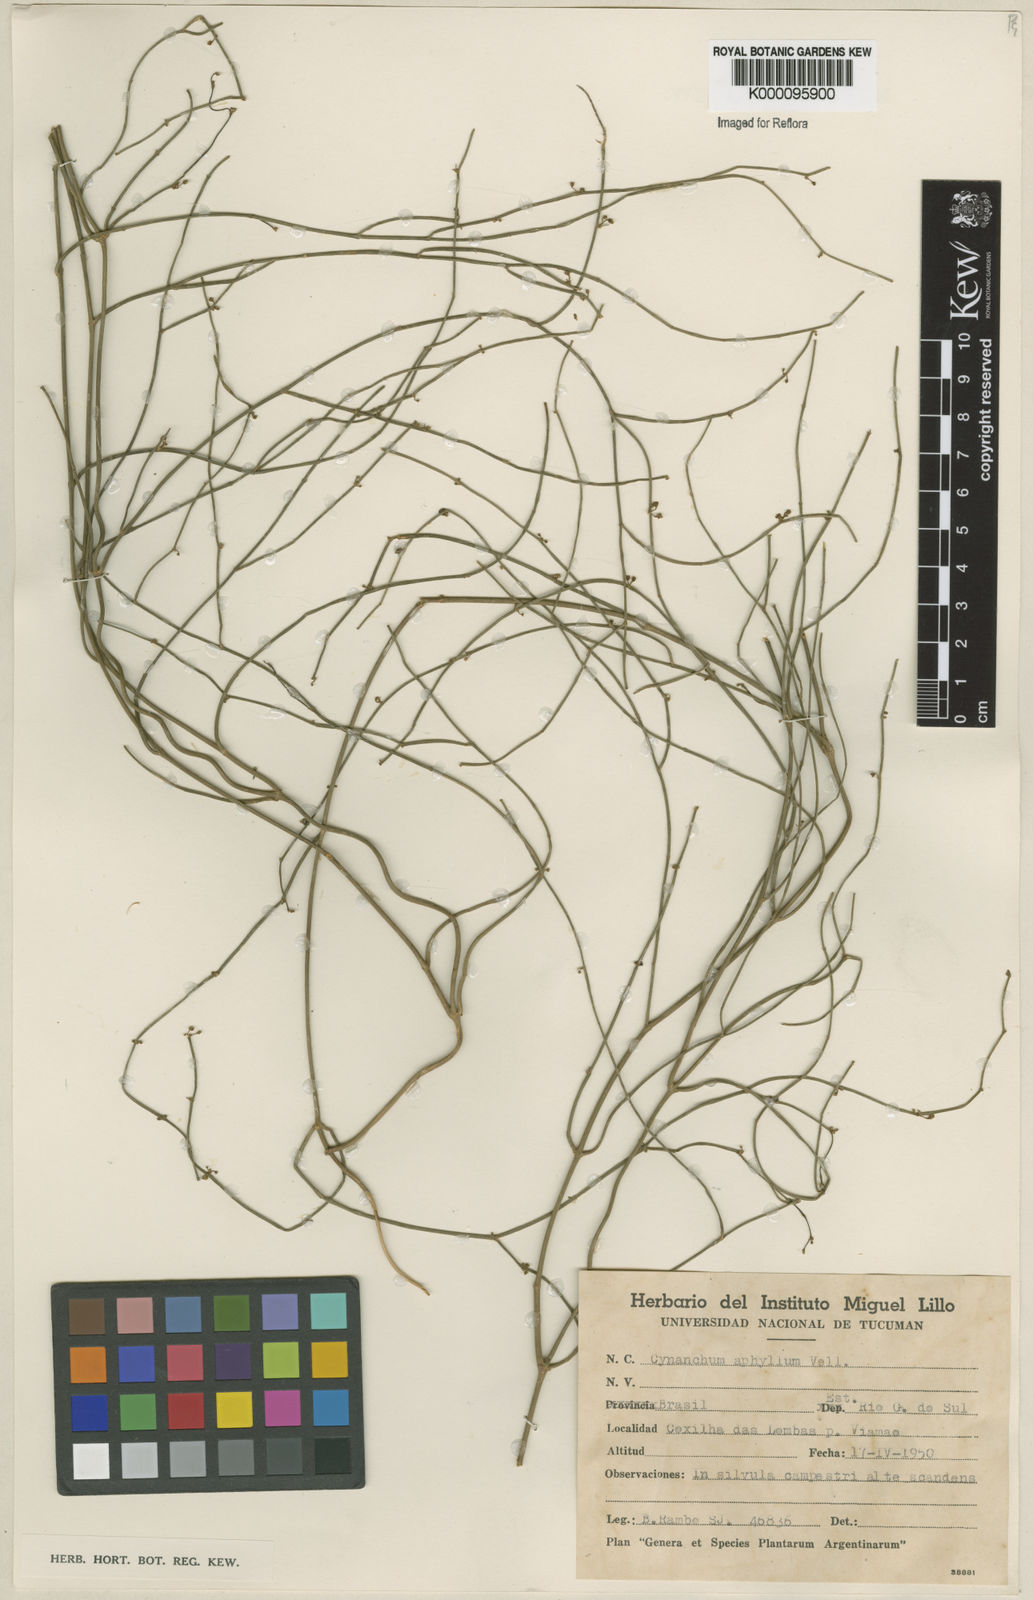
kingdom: Plantae
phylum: Tracheophyta
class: Magnoliopsida
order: Gentianales
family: Apocynaceae
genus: Orthosia
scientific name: Orthosia scoparia
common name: Leafless swallow-wort
